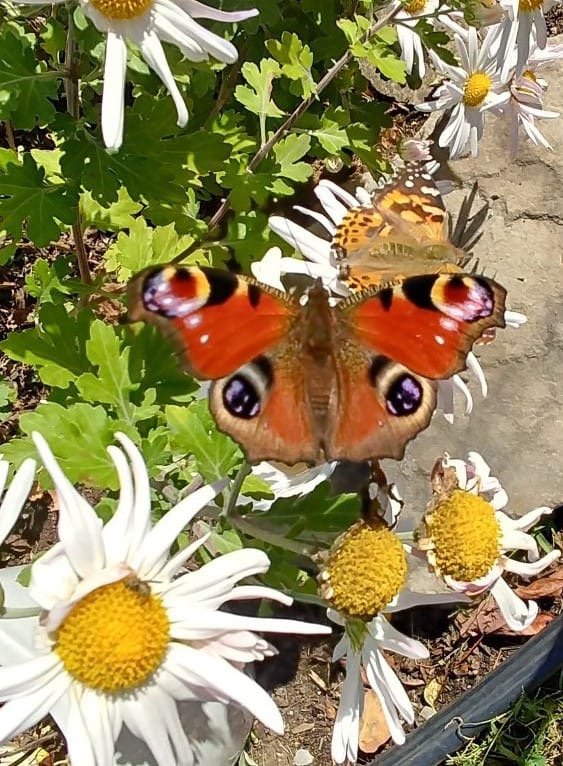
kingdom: Animalia
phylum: Arthropoda
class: Insecta
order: Lepidoptera
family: Nymphalidae
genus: Aglais
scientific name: Aglais io
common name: European Peacock
